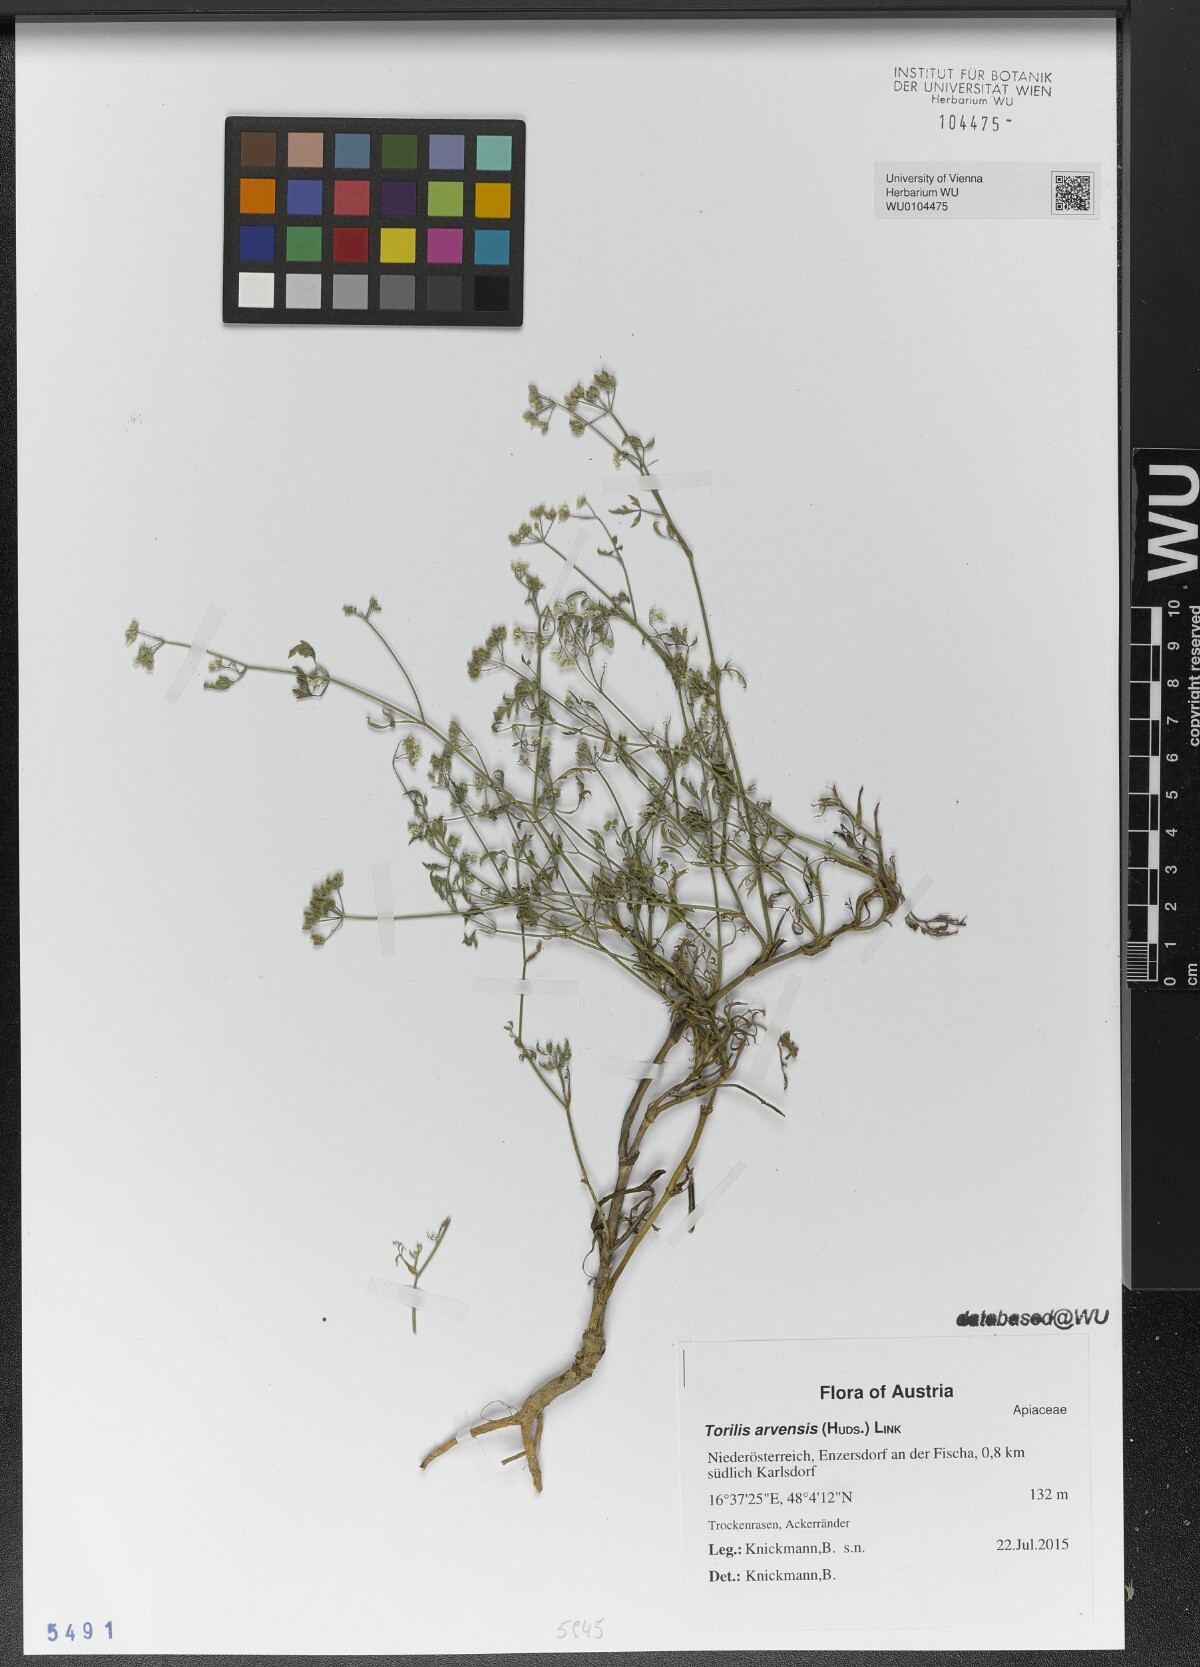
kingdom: Plantae
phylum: Tracheophyta
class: Magnoliopsida
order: Apiales
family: Apiaceae
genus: Torilis
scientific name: Torilis arvensis
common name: Spreading hedge-parsley
